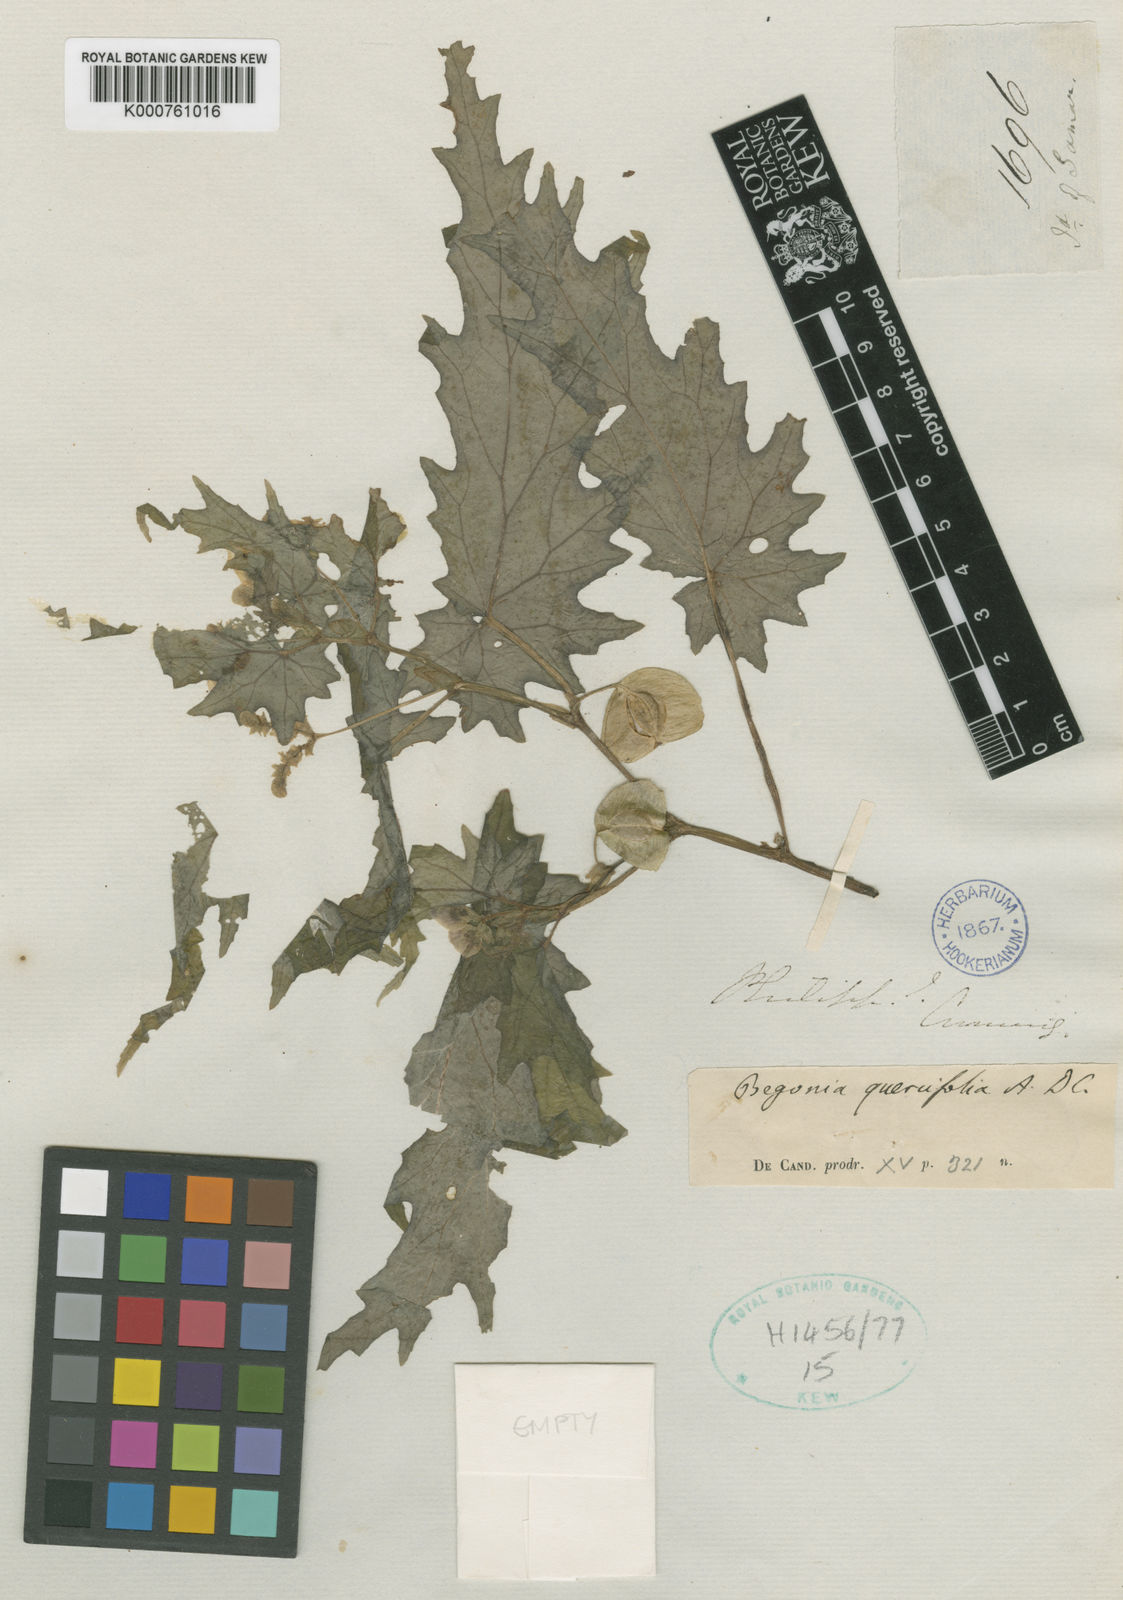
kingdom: Plantae
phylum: Tracheophyta
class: Magnoliopsida
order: Cucurbitales
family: Begoniaceae
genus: Begonia
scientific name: Begonia quercifolia
